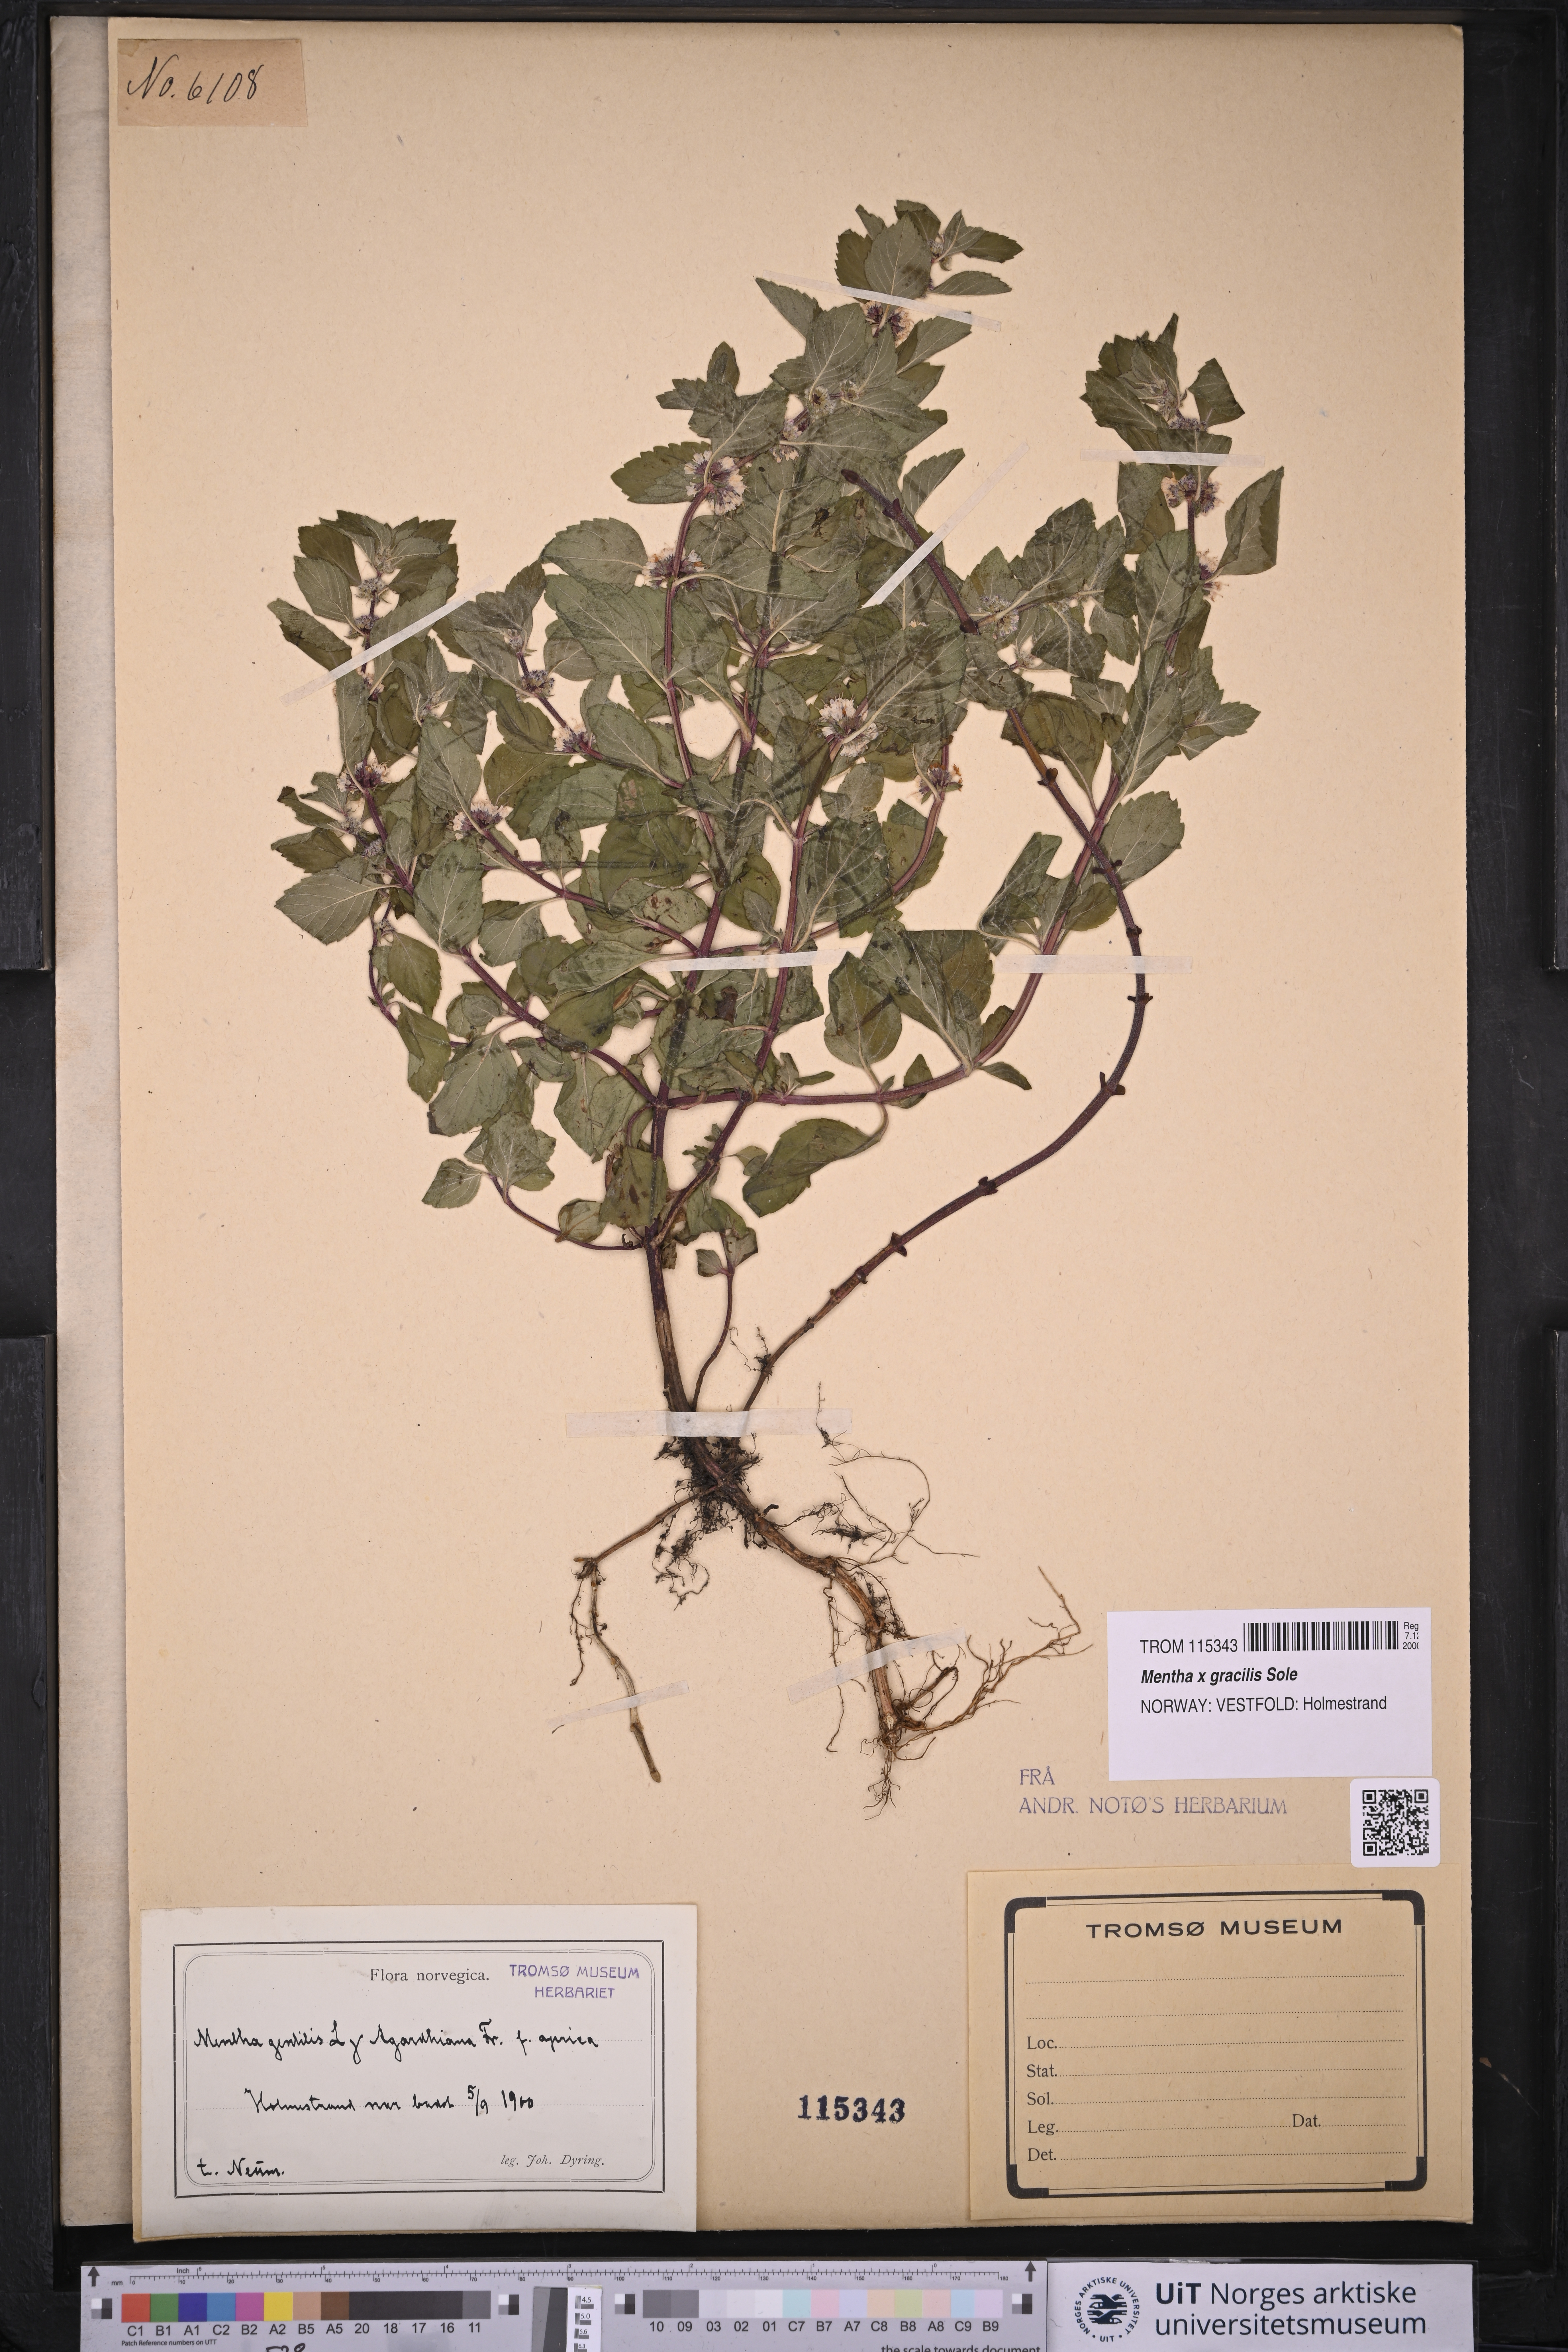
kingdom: Plantae
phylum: Tracheophyta
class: Magnoliopsida
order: Lamiales
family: Lamiaceae
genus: Mentha
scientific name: Mentha arvensis
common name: Corn mint
